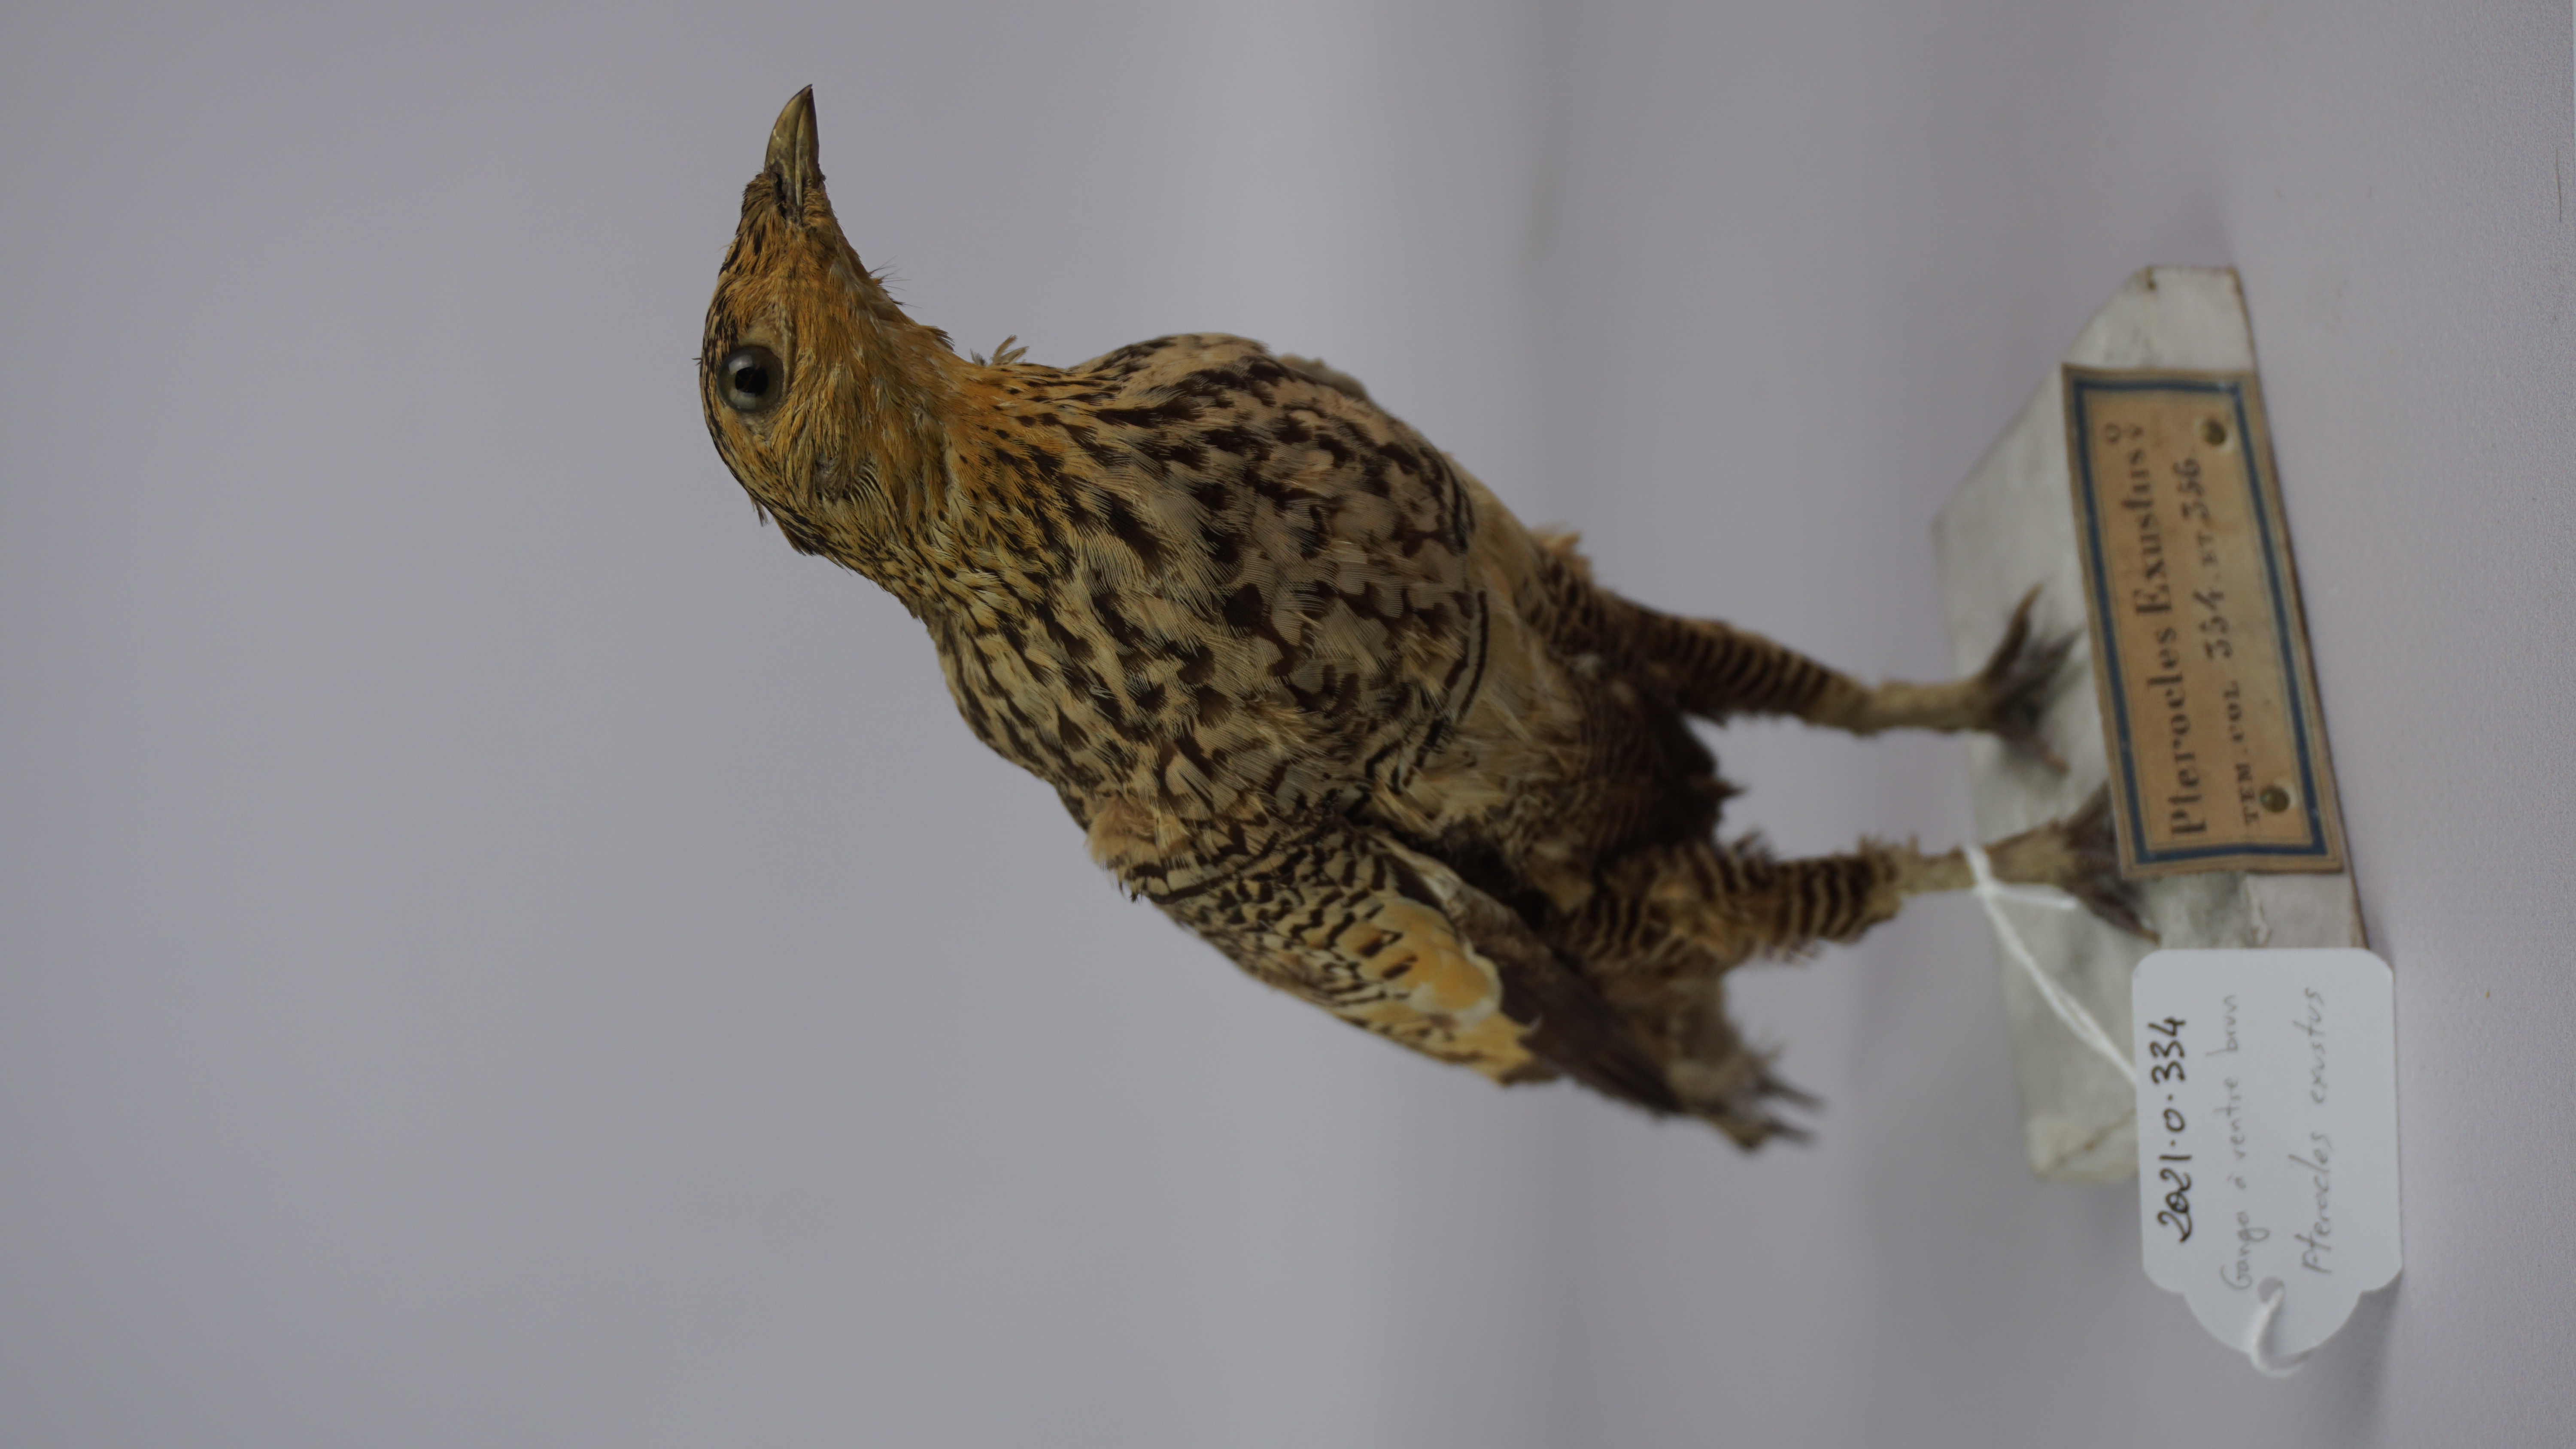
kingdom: Animalia
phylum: Chordata
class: Aves
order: Pteroclidiformes
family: Pteroclididae
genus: Pterocles
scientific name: Pterocles exustus
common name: Chestnut-bellied sandgrouse
